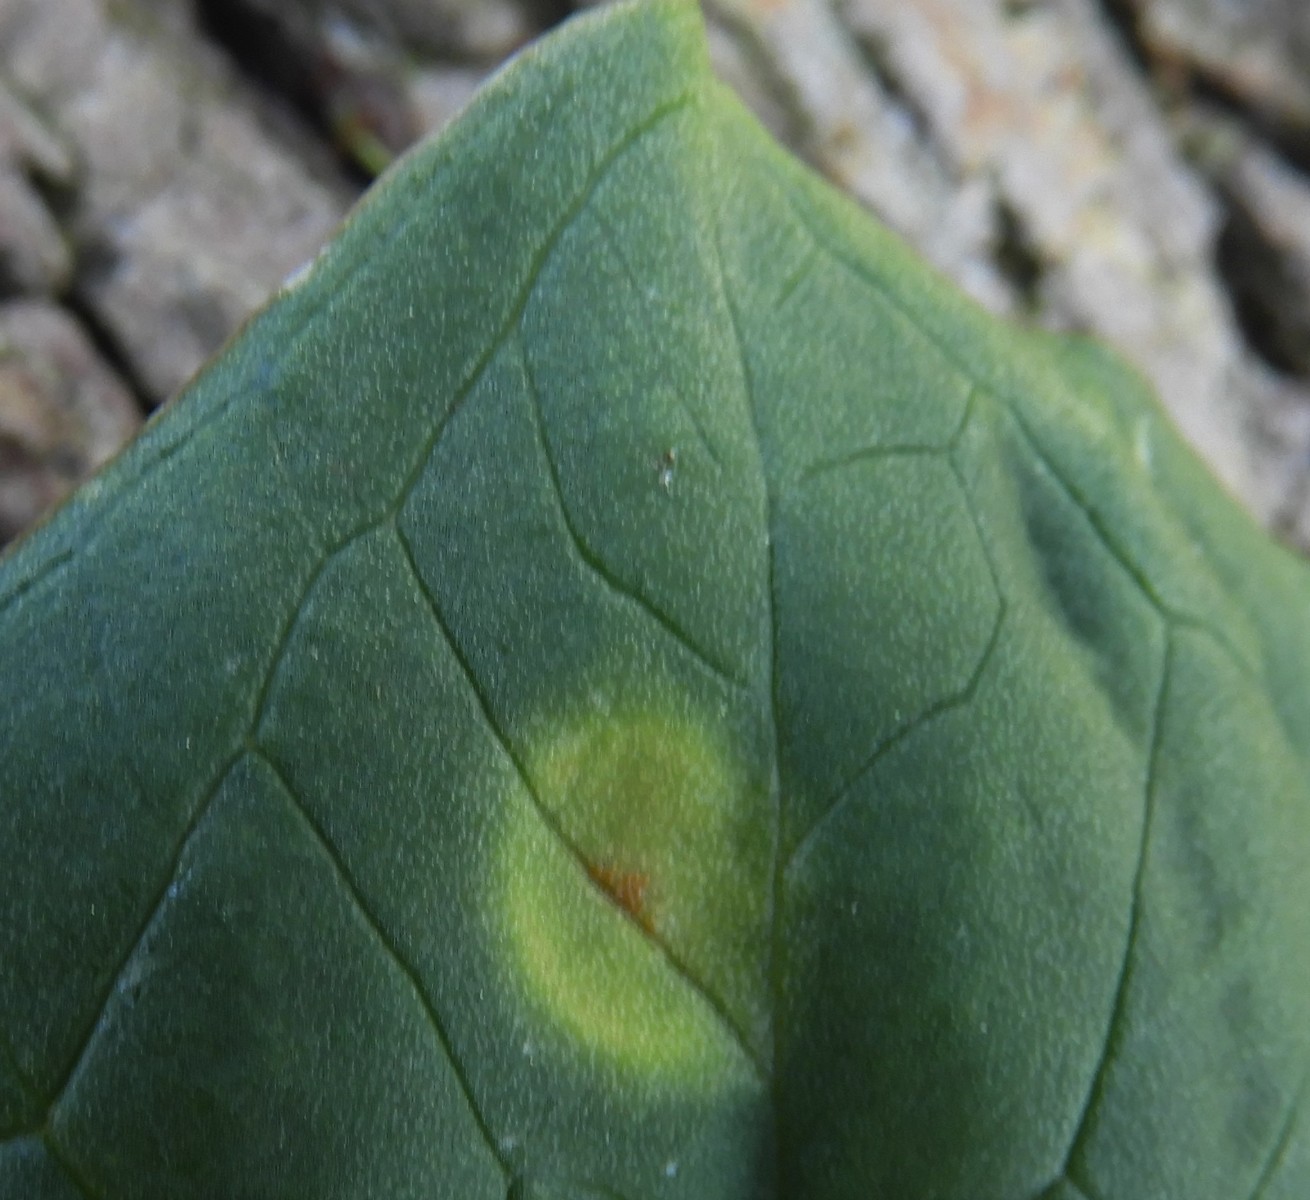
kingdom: Fungi
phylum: Basidiomycota
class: Pucciniomycetes
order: Pucciniales
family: Pucciniaceae
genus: Puccinia
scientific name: Puccinia sessilis
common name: Arum rust
